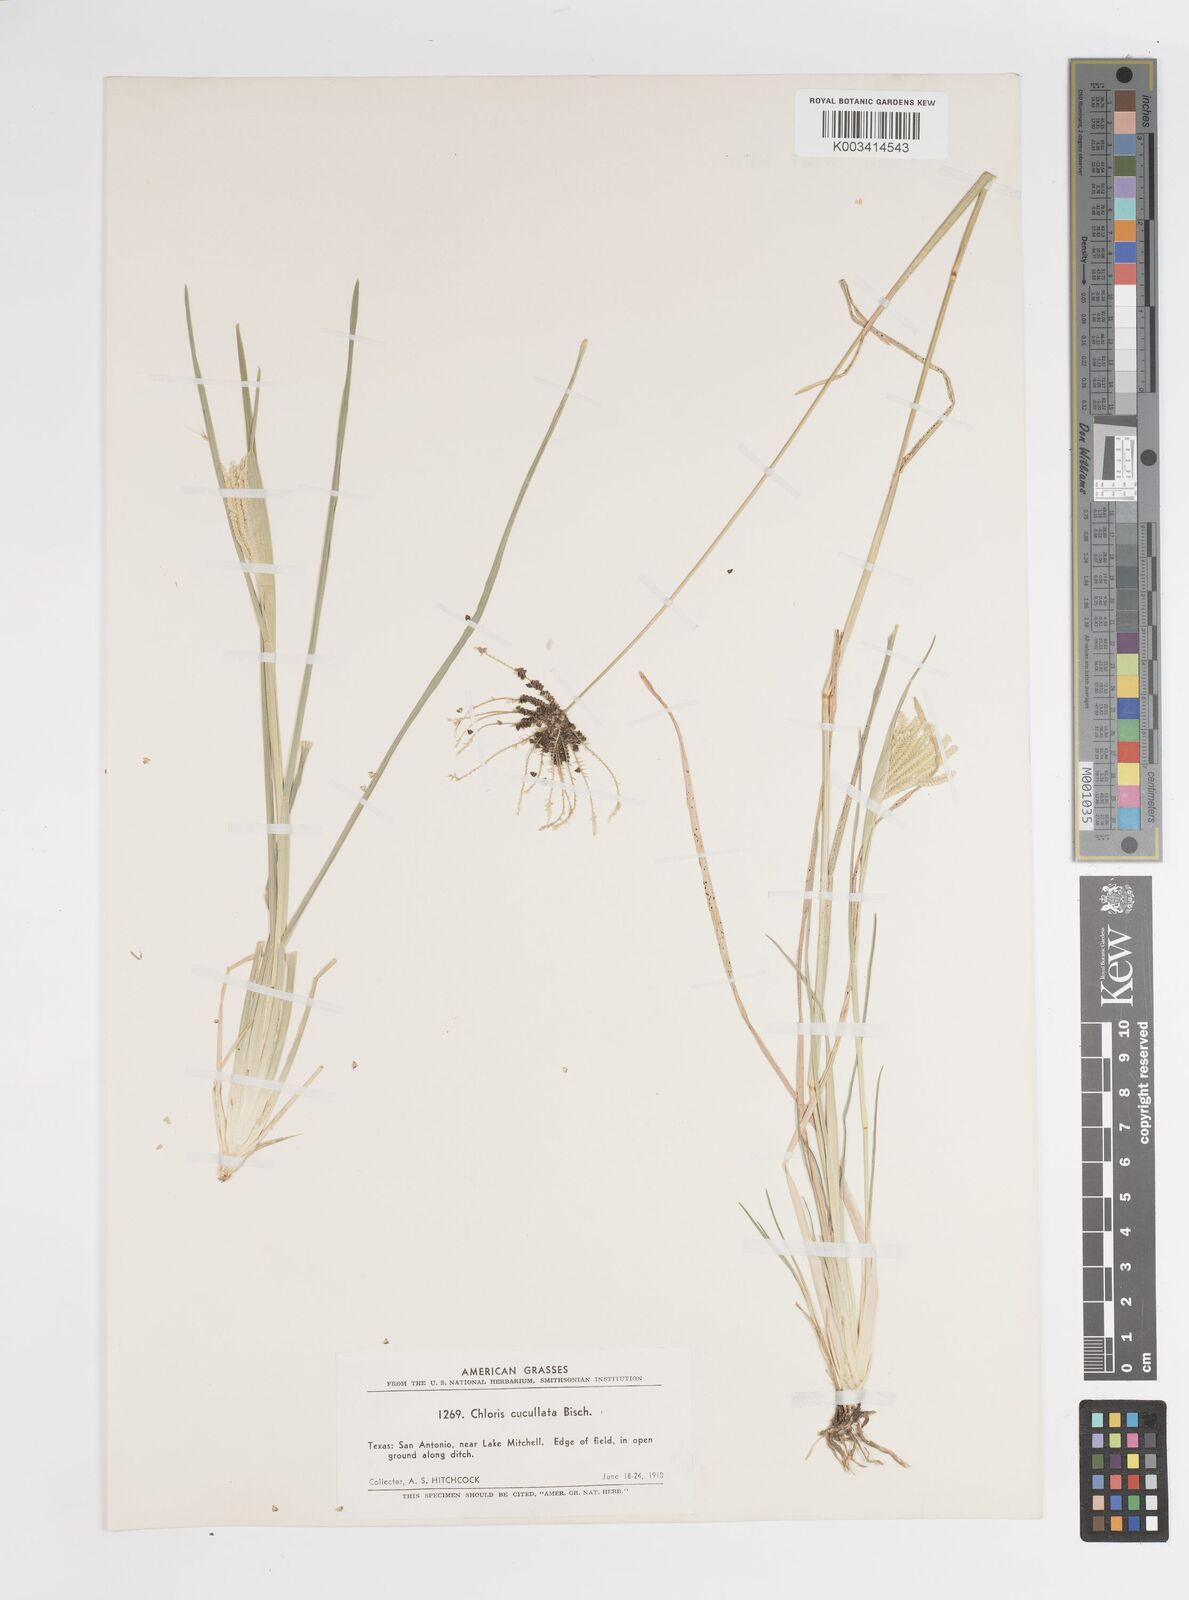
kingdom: Plantae
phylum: Tracheophyta
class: Liliopsida
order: Poales
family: Poaceae
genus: Chloris
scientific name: Chloris cucullata
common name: Hooded windmill grass
